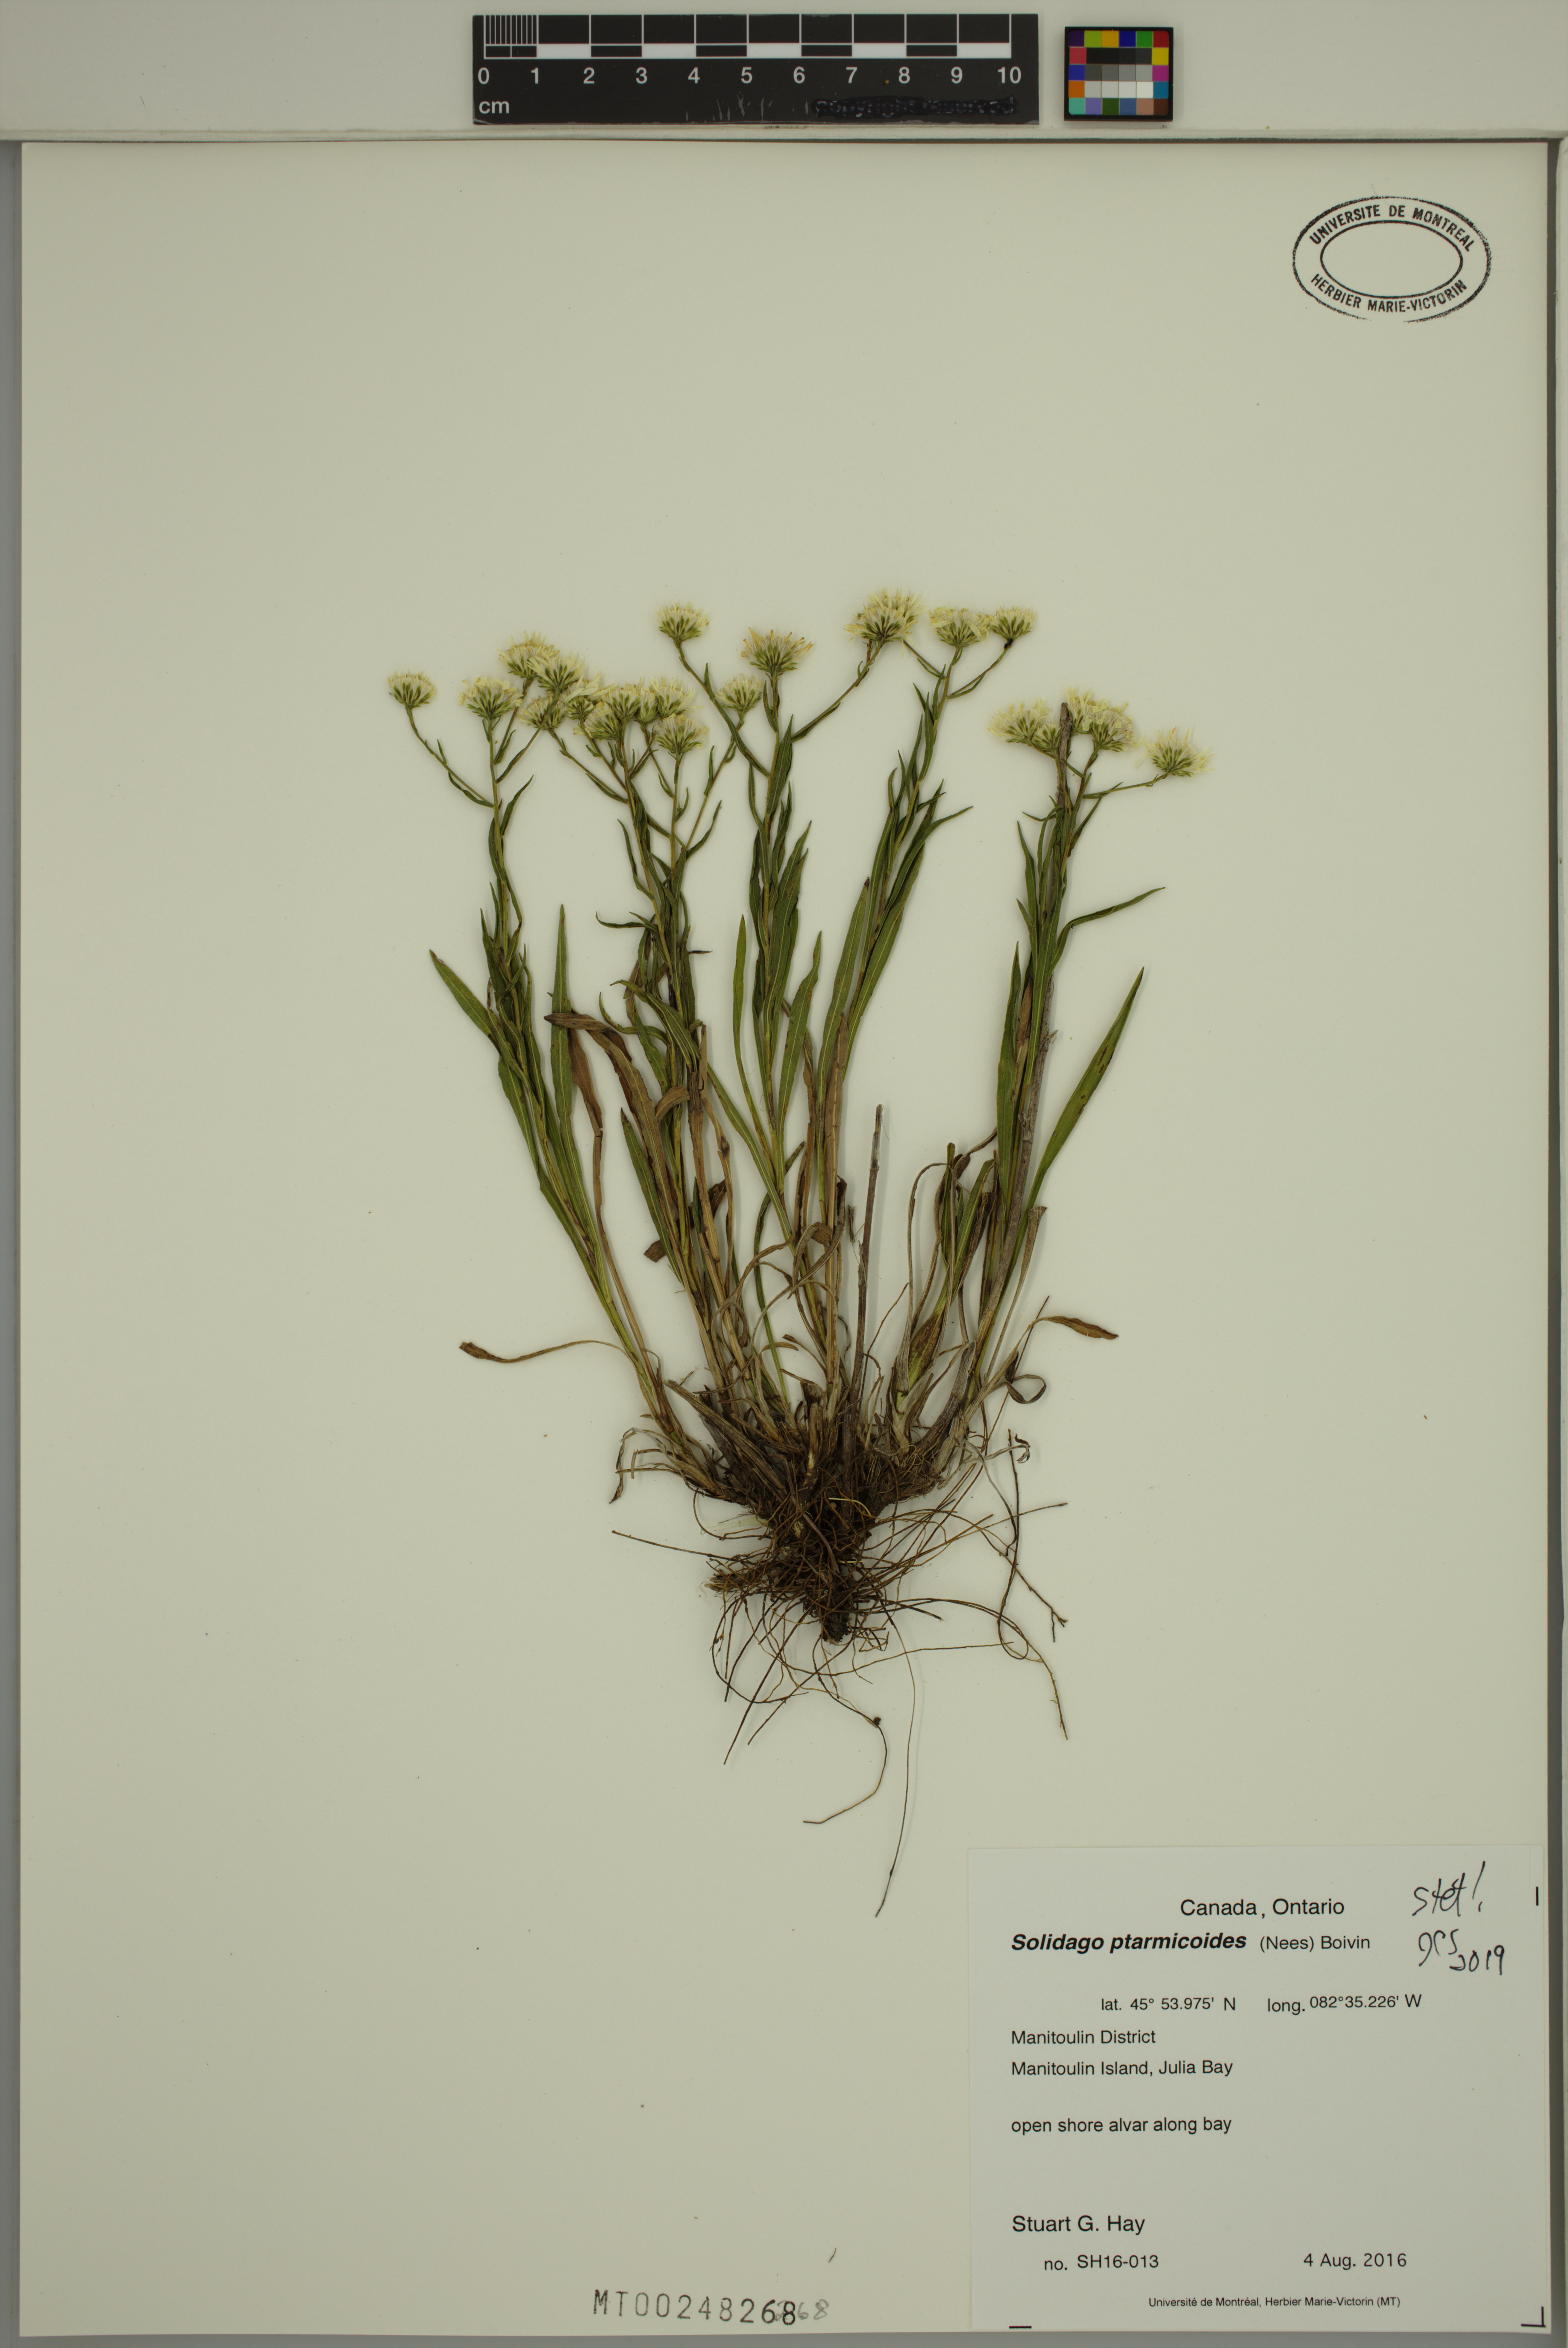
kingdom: Plantae
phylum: Tracheophyta
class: Magnoliopsida
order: Asterales
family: Asteraceae
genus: Solidago
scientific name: Solidago ptarmicoides
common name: White flat-top goldenrod
